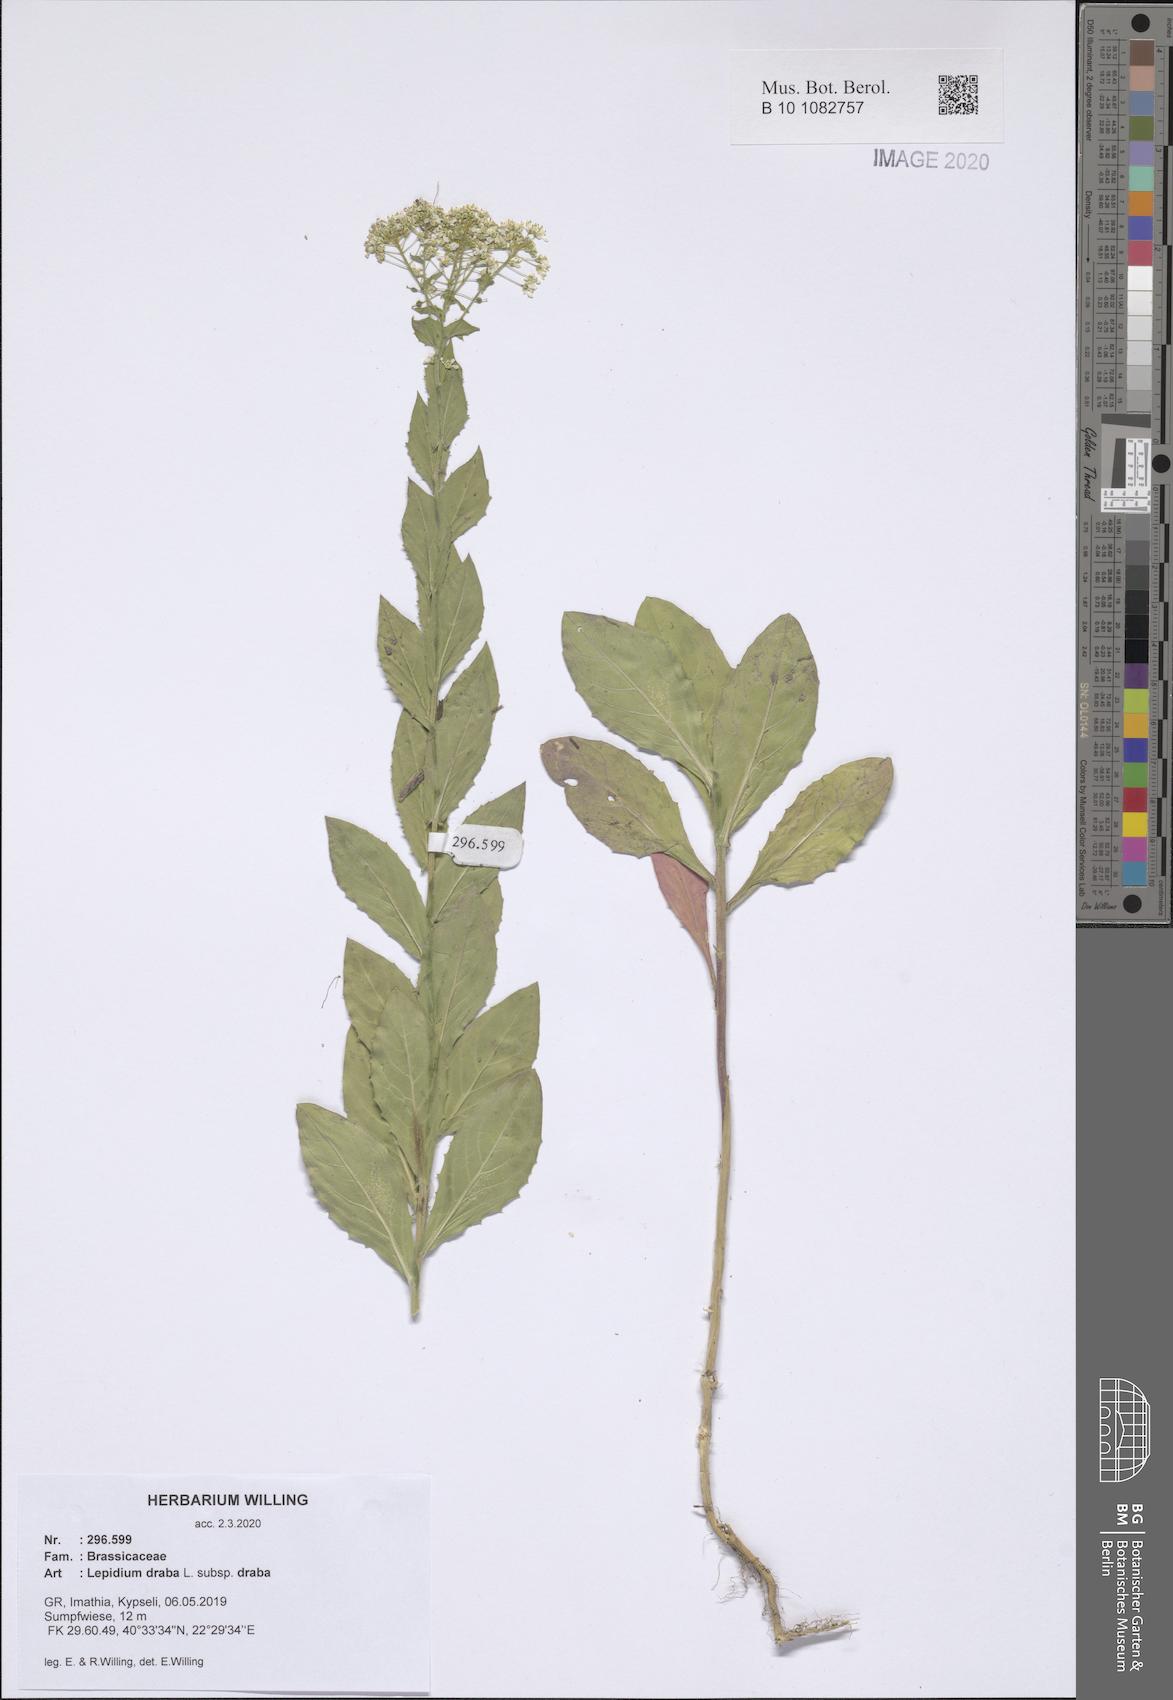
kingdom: Plantae
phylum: Tracheophyta
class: Magnoliopsida
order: Brassicales
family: Brassicaceae
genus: Lepidium
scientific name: Lepidium draba
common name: Hoary cress
